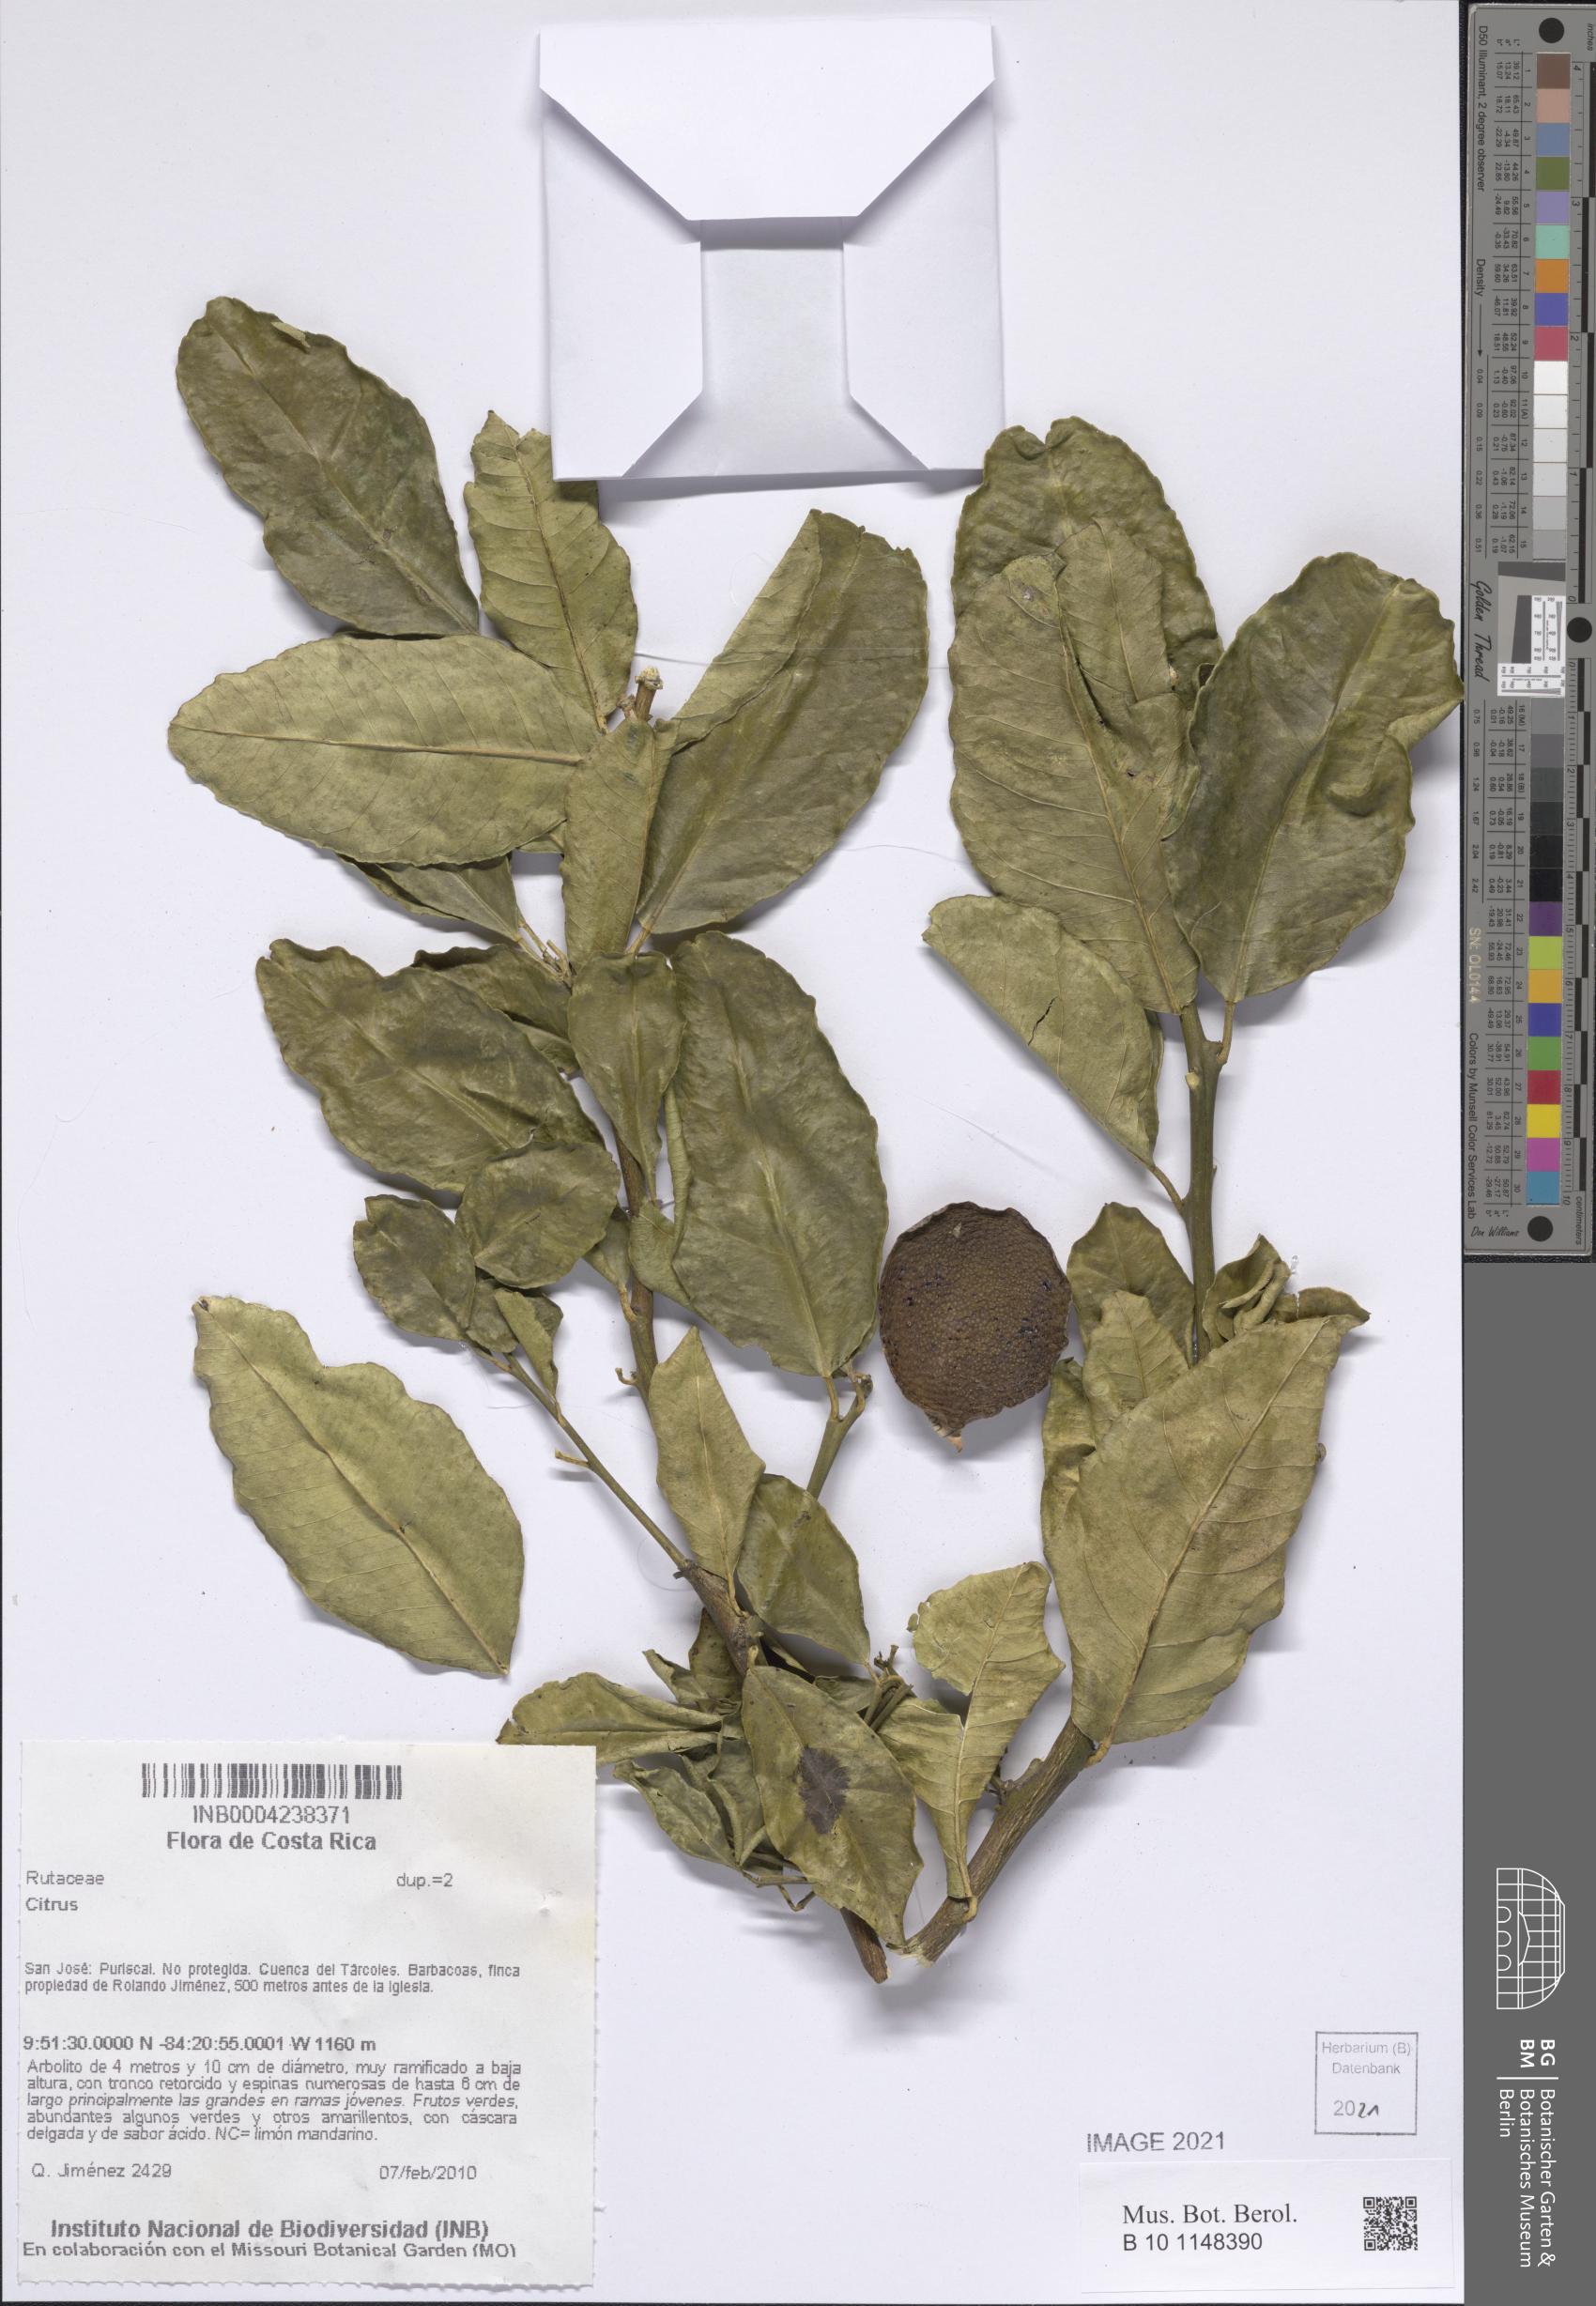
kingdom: Plantae
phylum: Tracheophyta
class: Magnoliopsida
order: Sapindales
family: Rutaceae
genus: Citrus
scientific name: Citrus
